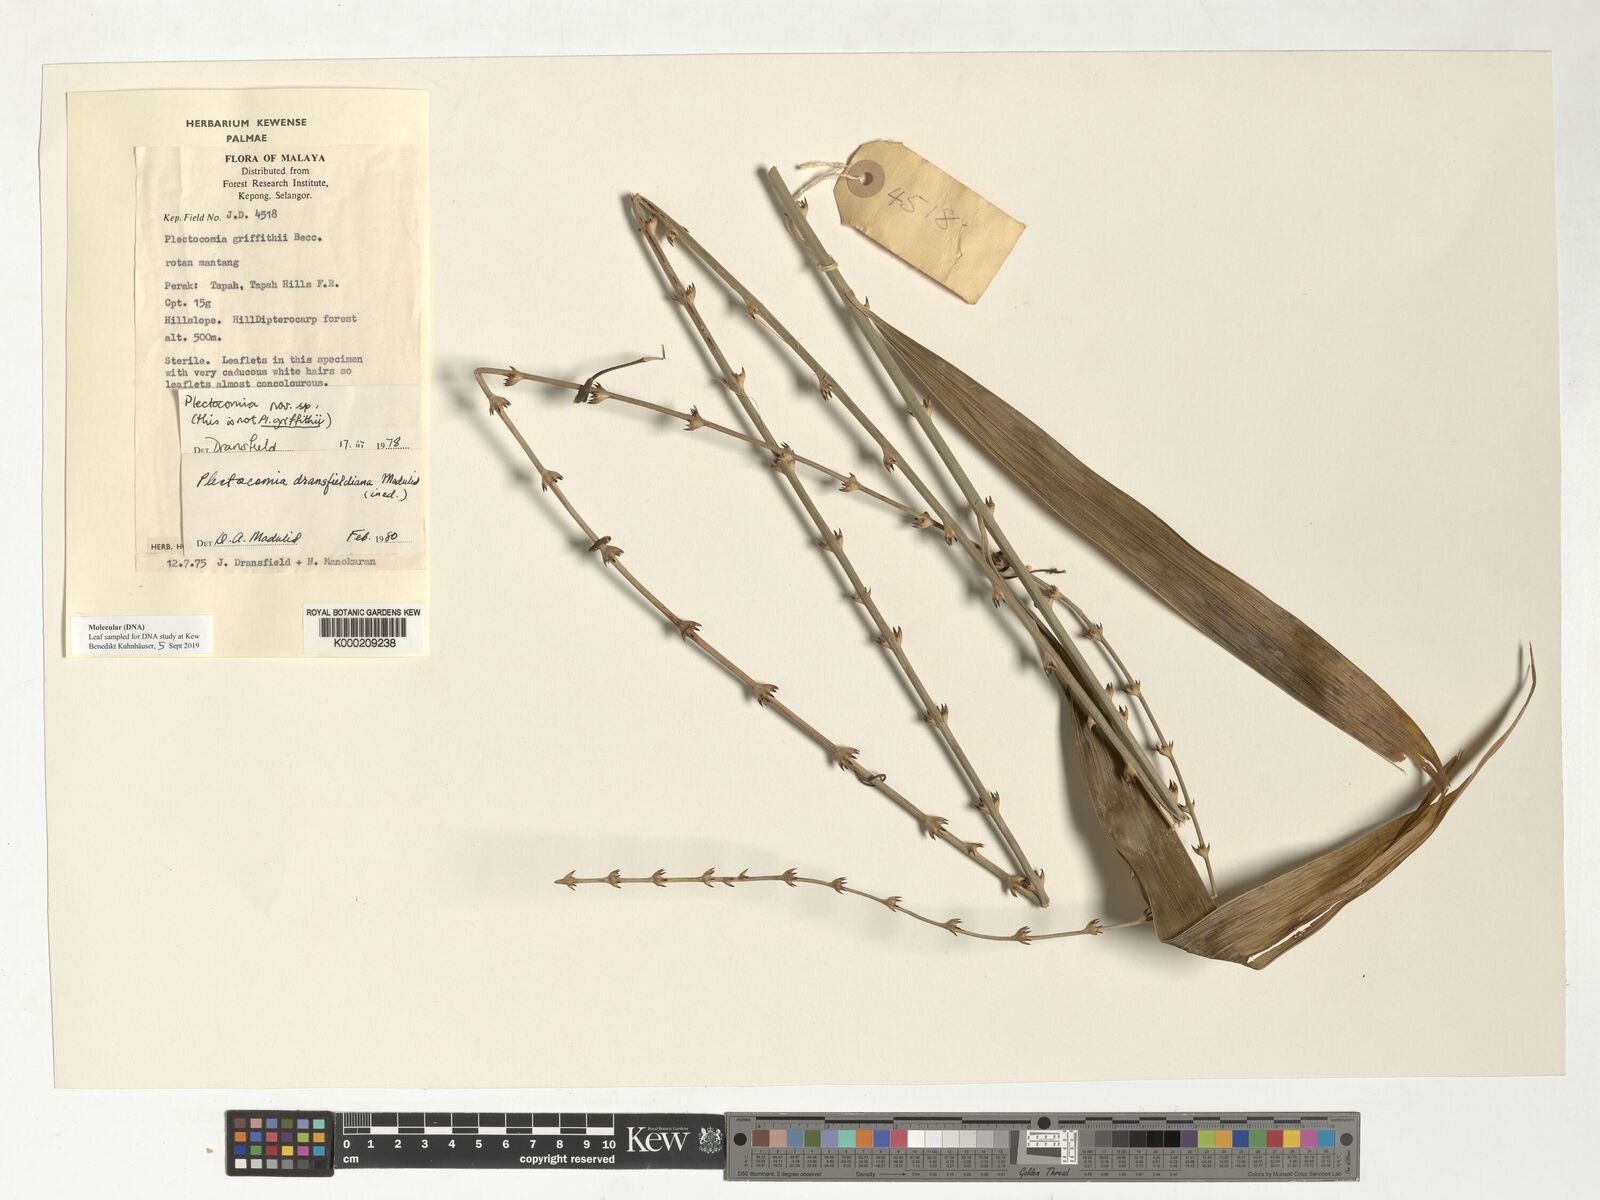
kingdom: Plantae
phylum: Tracheophyta
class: Liliopsida
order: Arecales
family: Arecaceae
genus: Plectocomia
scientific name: Plectocomia dransfieldiana
